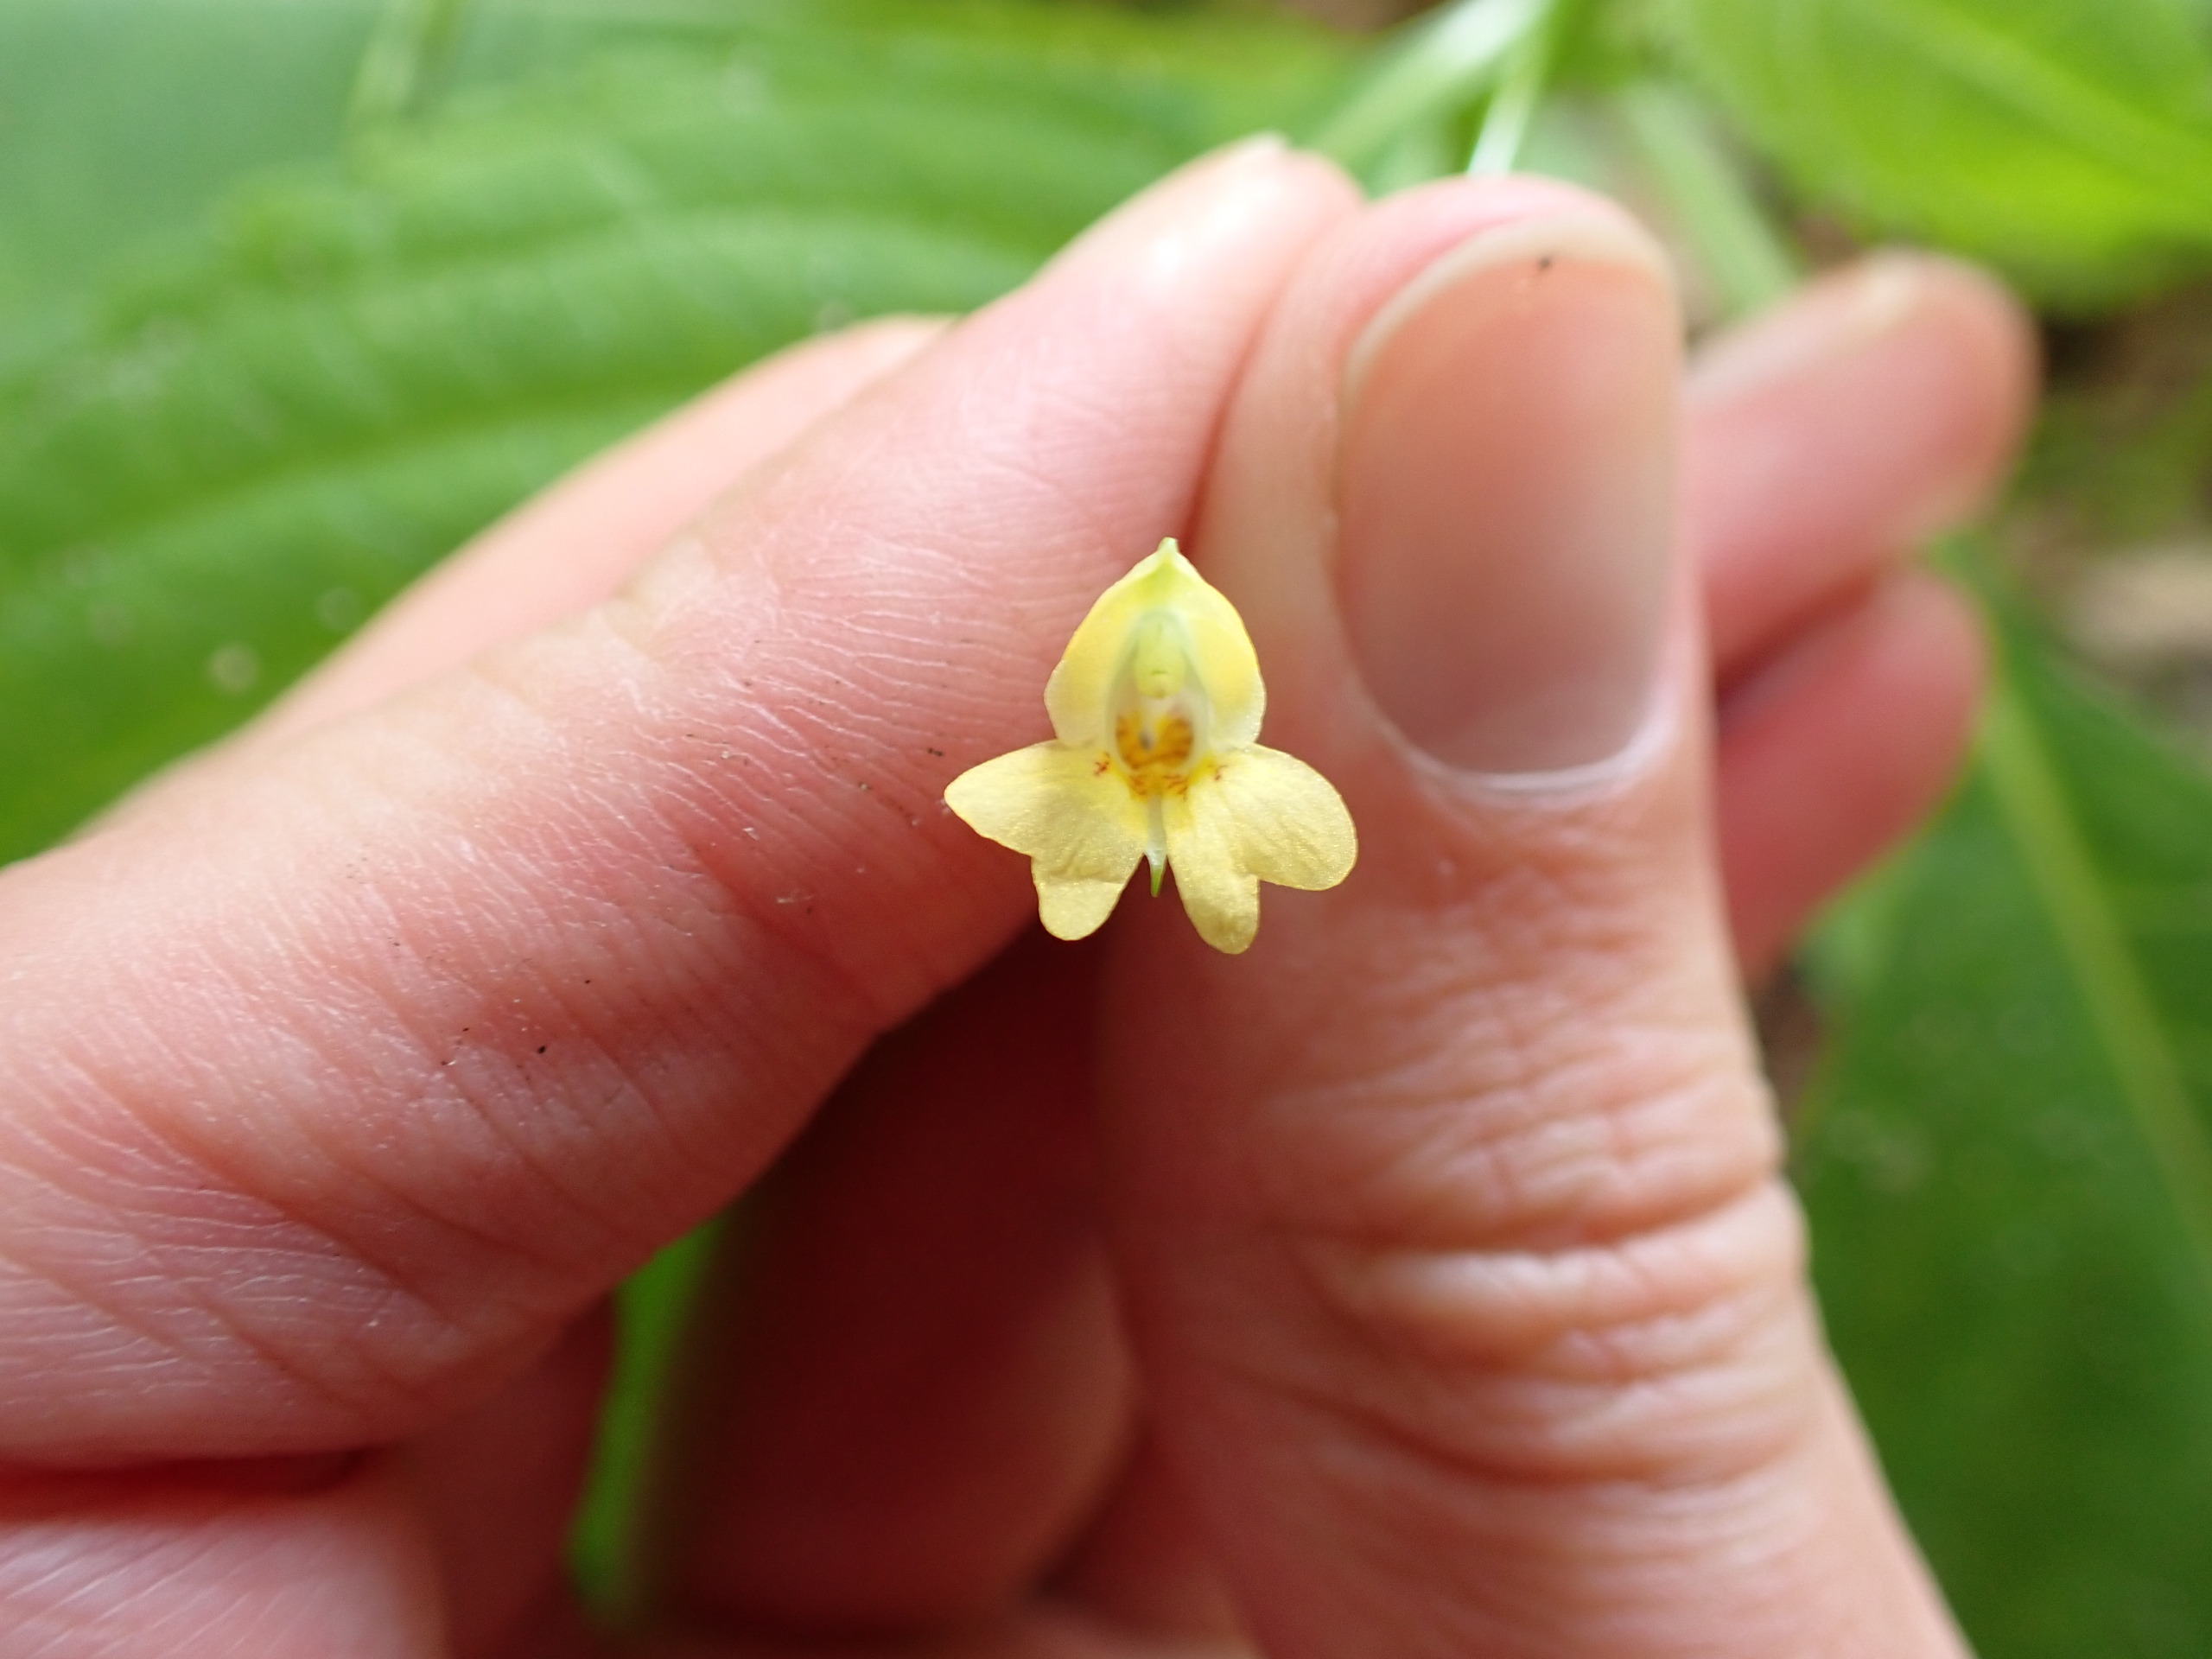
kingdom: Plantae
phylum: Tracheophyta
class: Magnoliopsida
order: Ericales
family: Balsaminaceae
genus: Impatiens
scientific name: Impatiens parviflora
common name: Småblomstret balsamin
